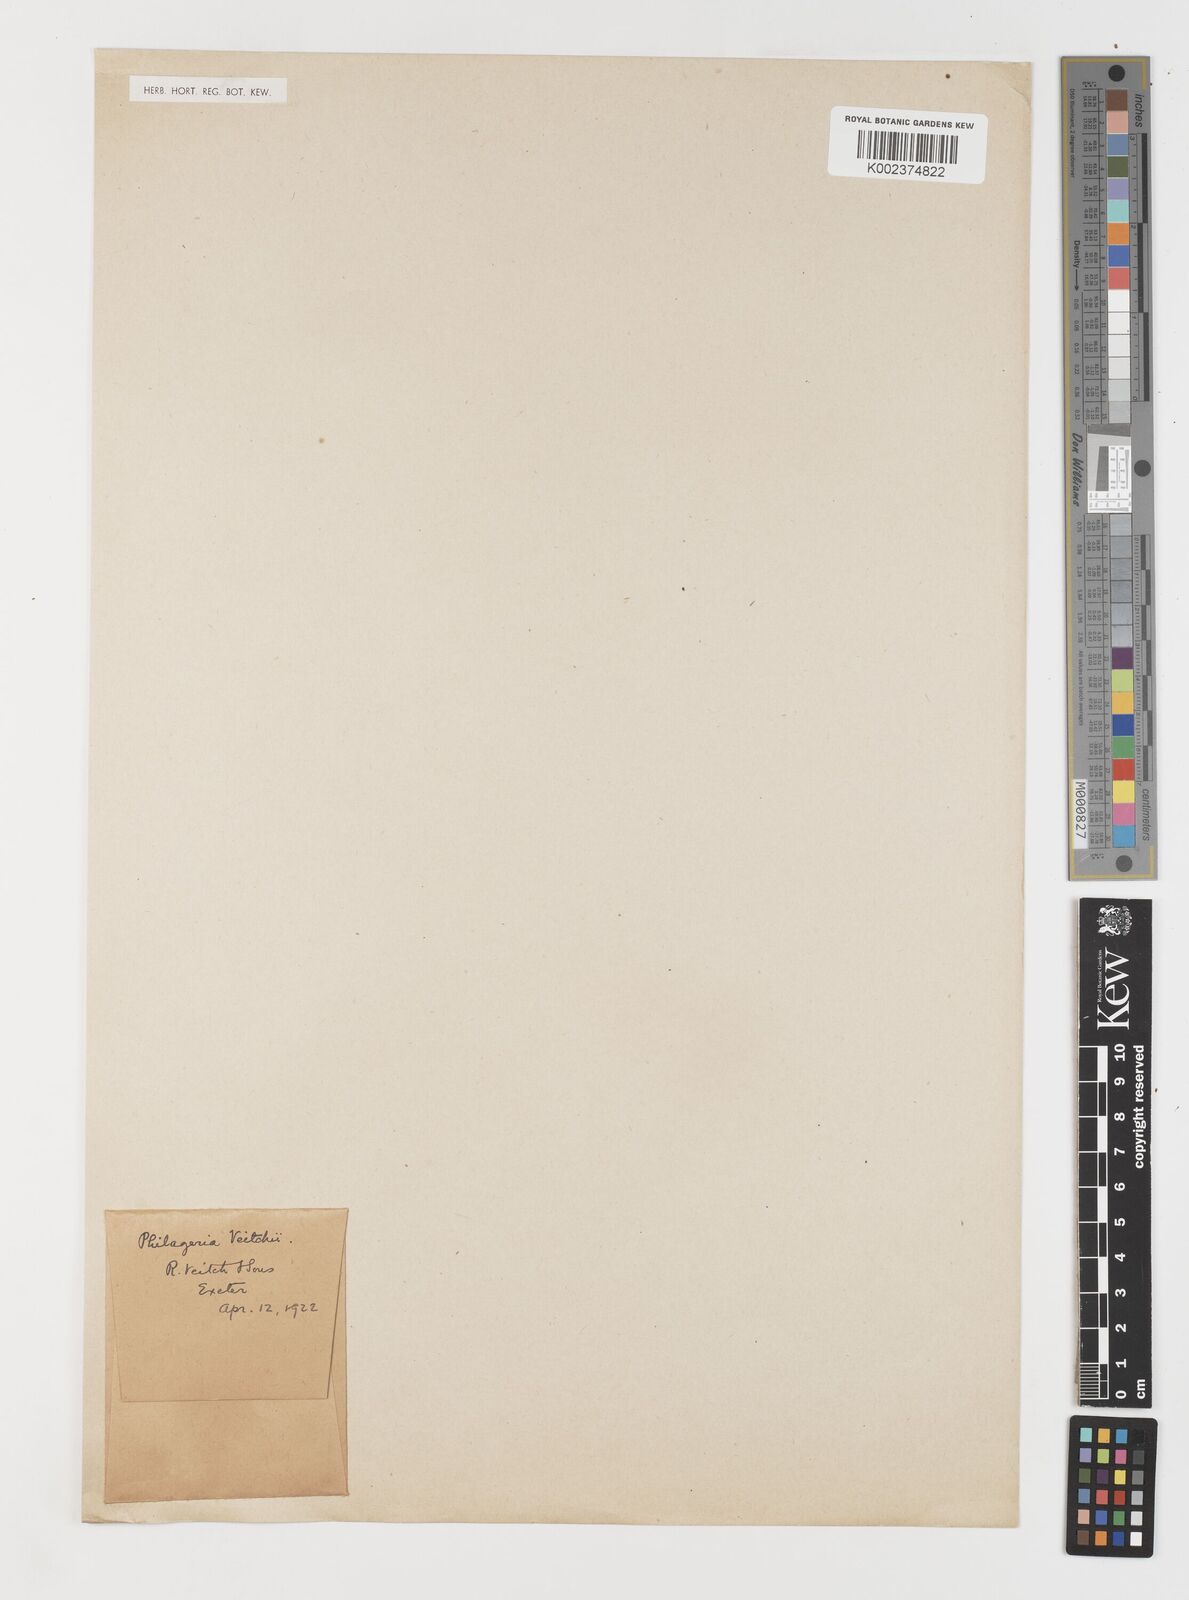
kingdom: Plantae
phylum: Tracheophyta
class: Liliopsida
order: Liliales
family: Philesiaceae
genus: Philageria
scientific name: Philageria veitchii
